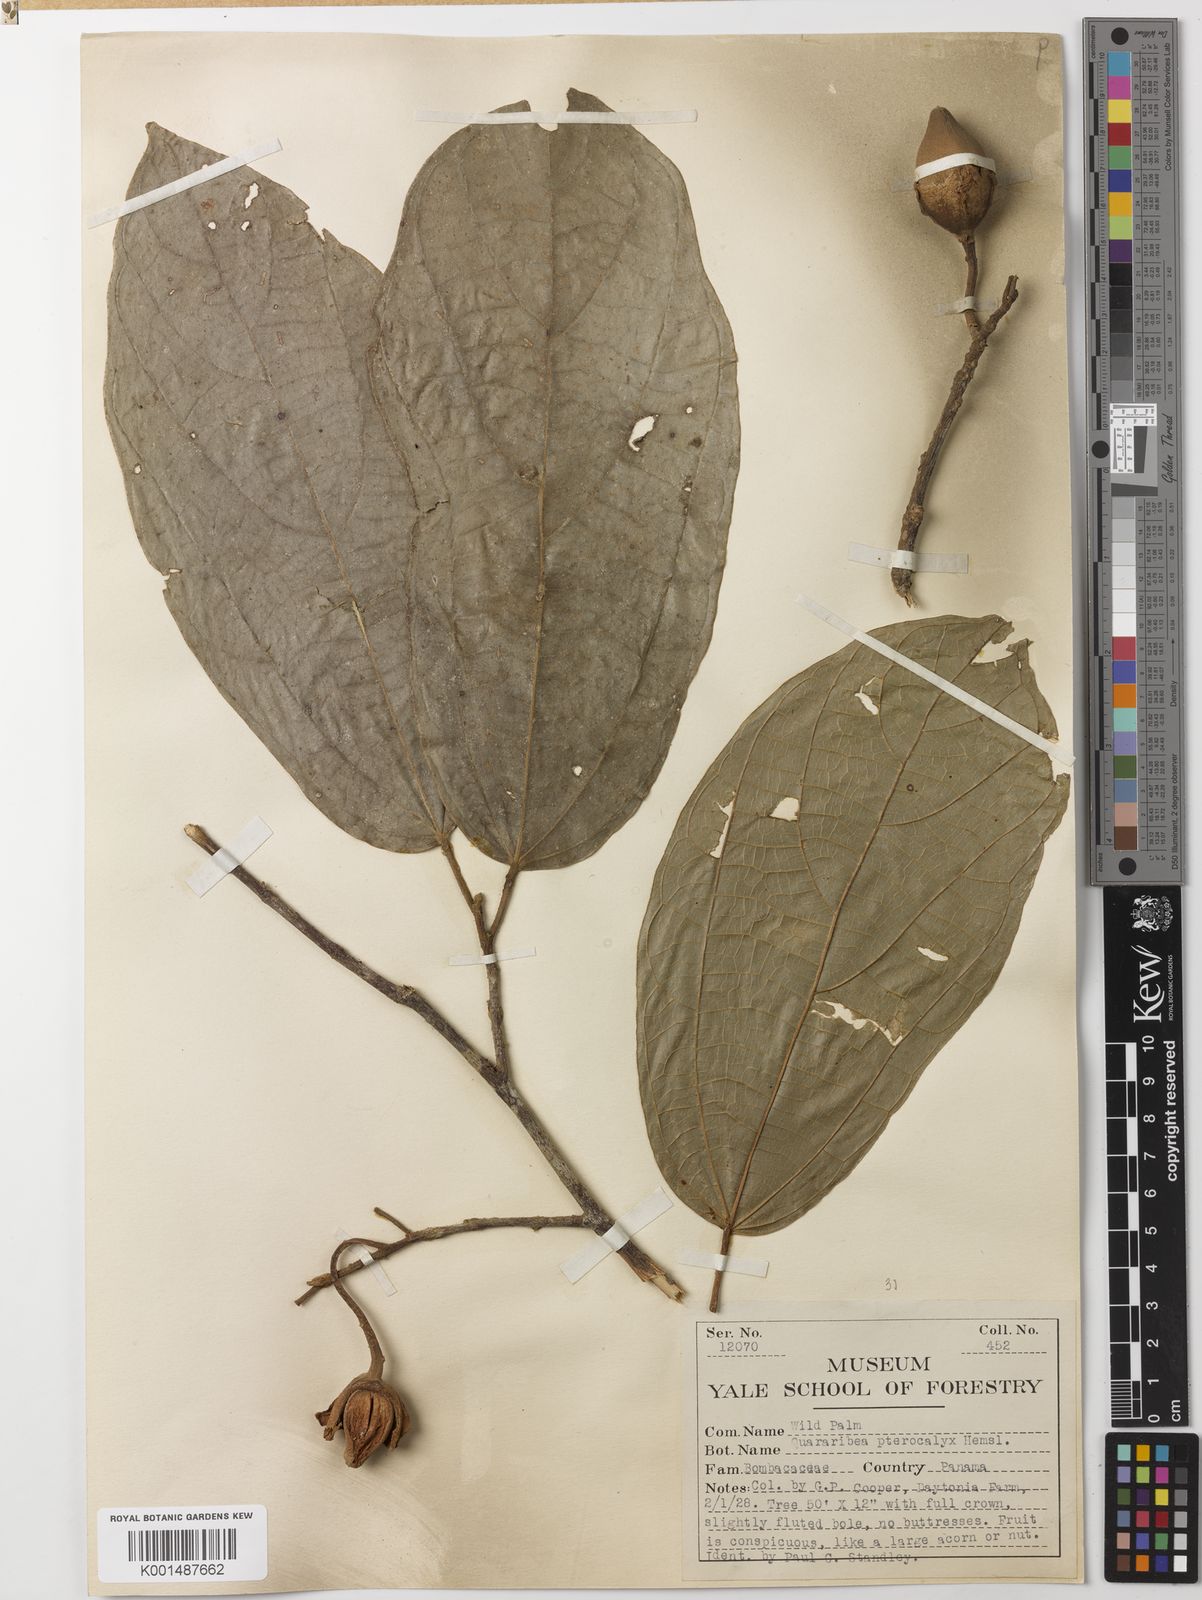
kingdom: Plantae
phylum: Tracheophyta
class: Magnoliopsida
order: Malvales
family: Malvaceae
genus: Quararibea
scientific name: Quararibea pterocalyx
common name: Wild palm
